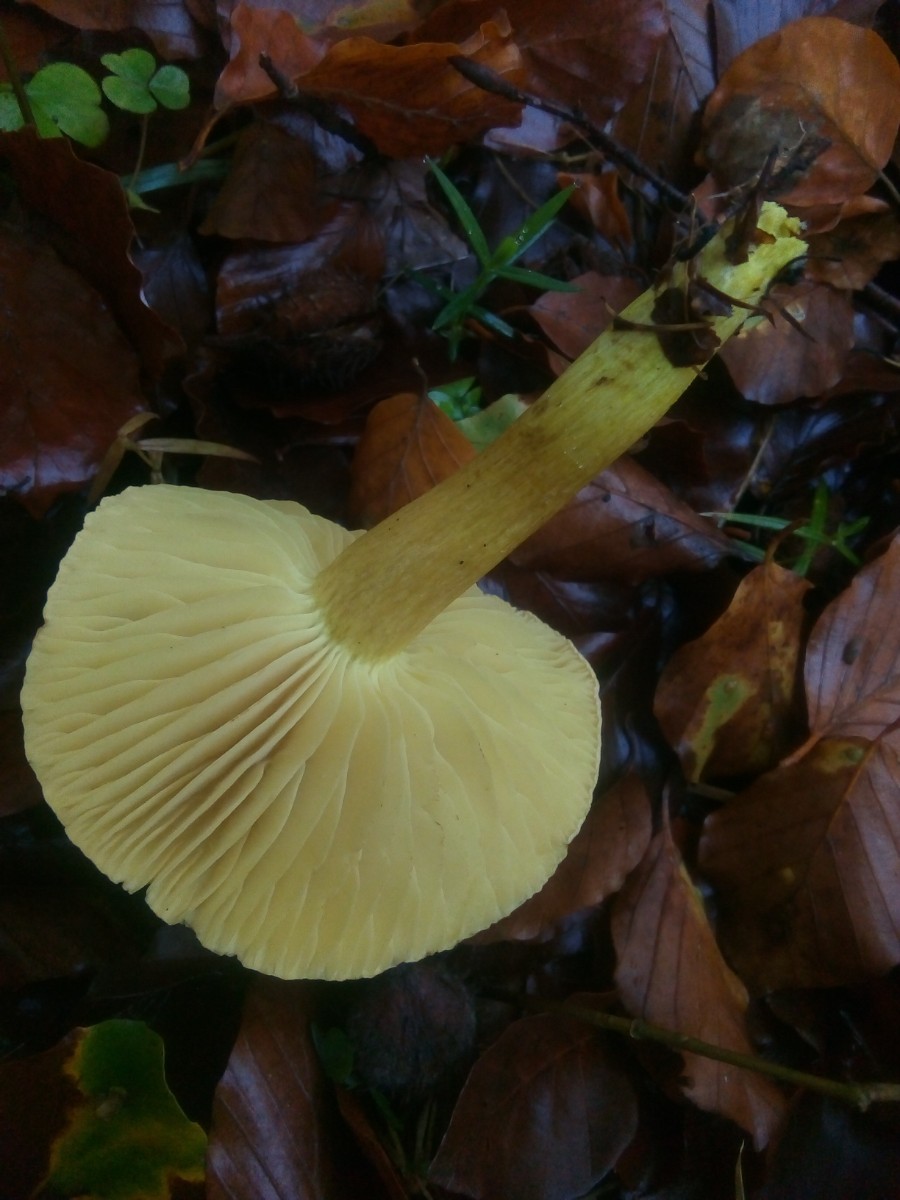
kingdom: Fungi
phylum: Basidiomycota
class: Agaricomycetes
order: Agaricales
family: Tricholomataceae
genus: Tricholoma
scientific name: Tricholoma sulphureum
